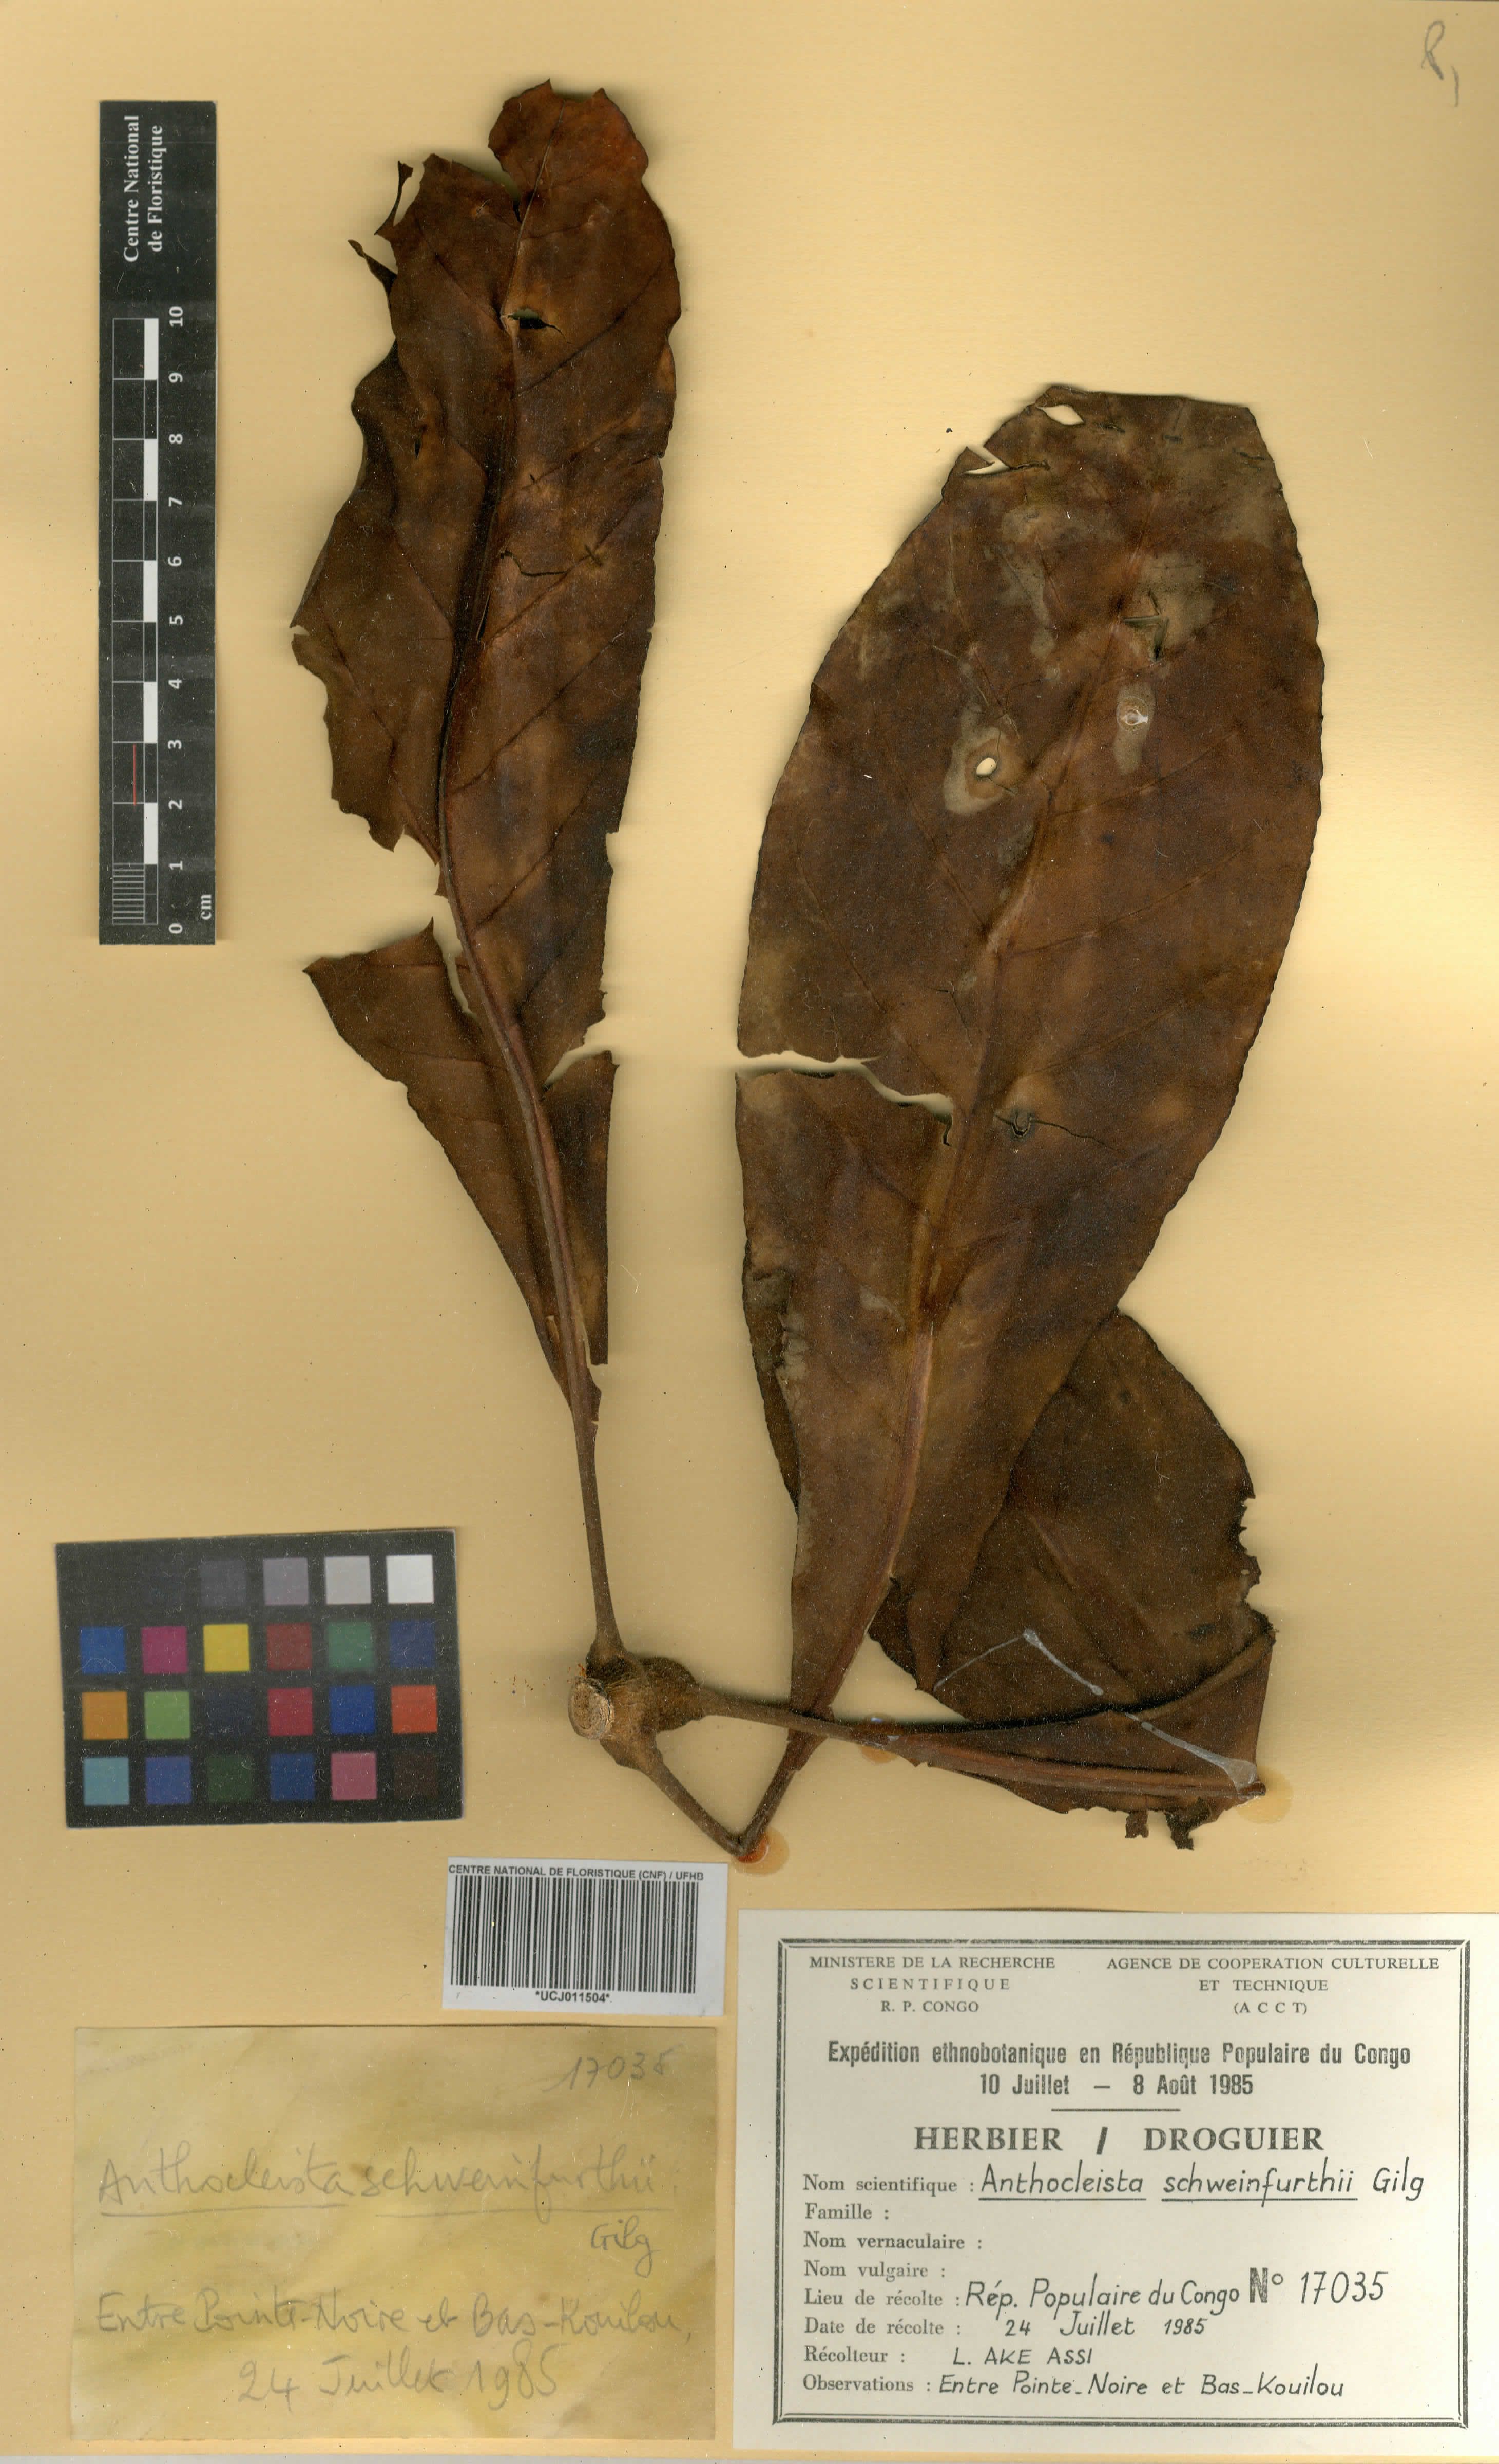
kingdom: Plantae
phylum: Tracheophyta
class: Magnoliopsida
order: Gentianales
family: Gentianaceae
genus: Anthocleista
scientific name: Anthocleista schweinfurthii
